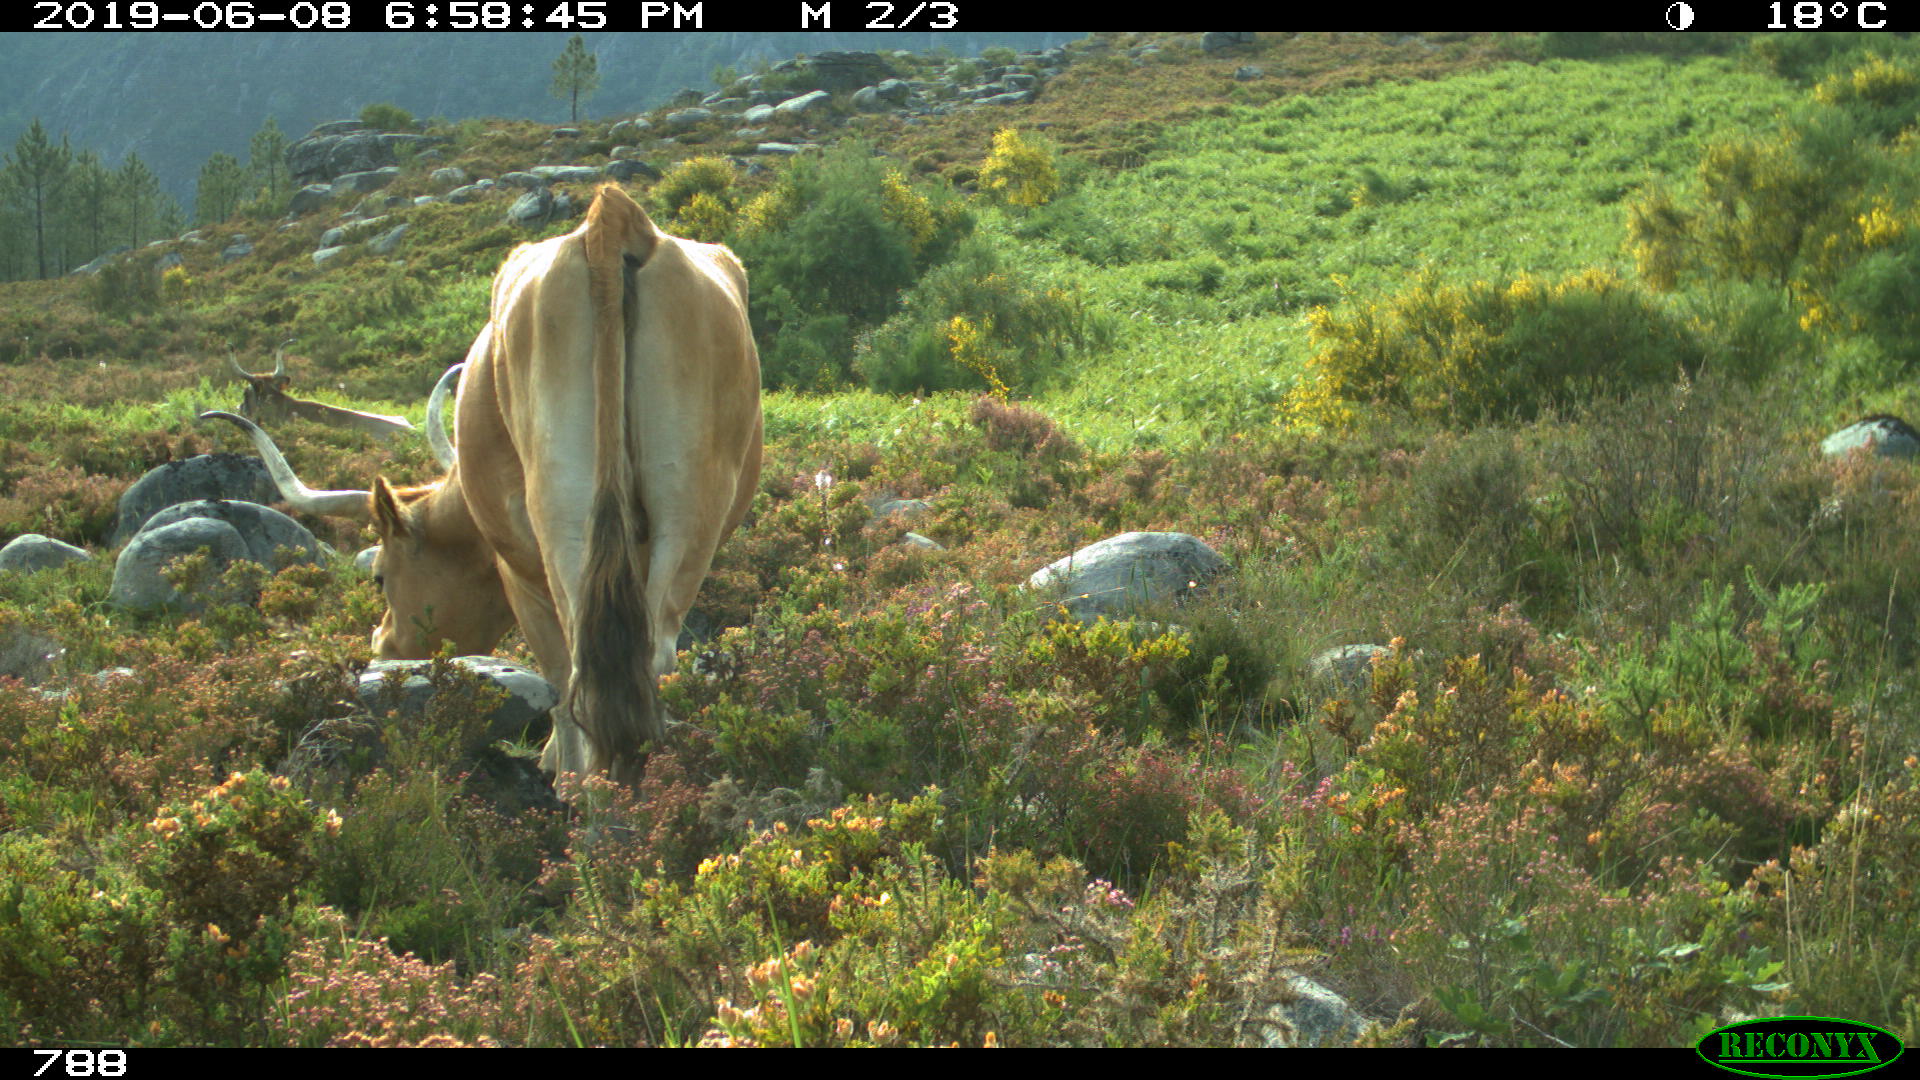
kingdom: Animalia
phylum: Chordata
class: Mammalia
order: Artiodactyla
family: Bovidae
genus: Bos
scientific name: Bos taurus
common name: Domesticated cattle
